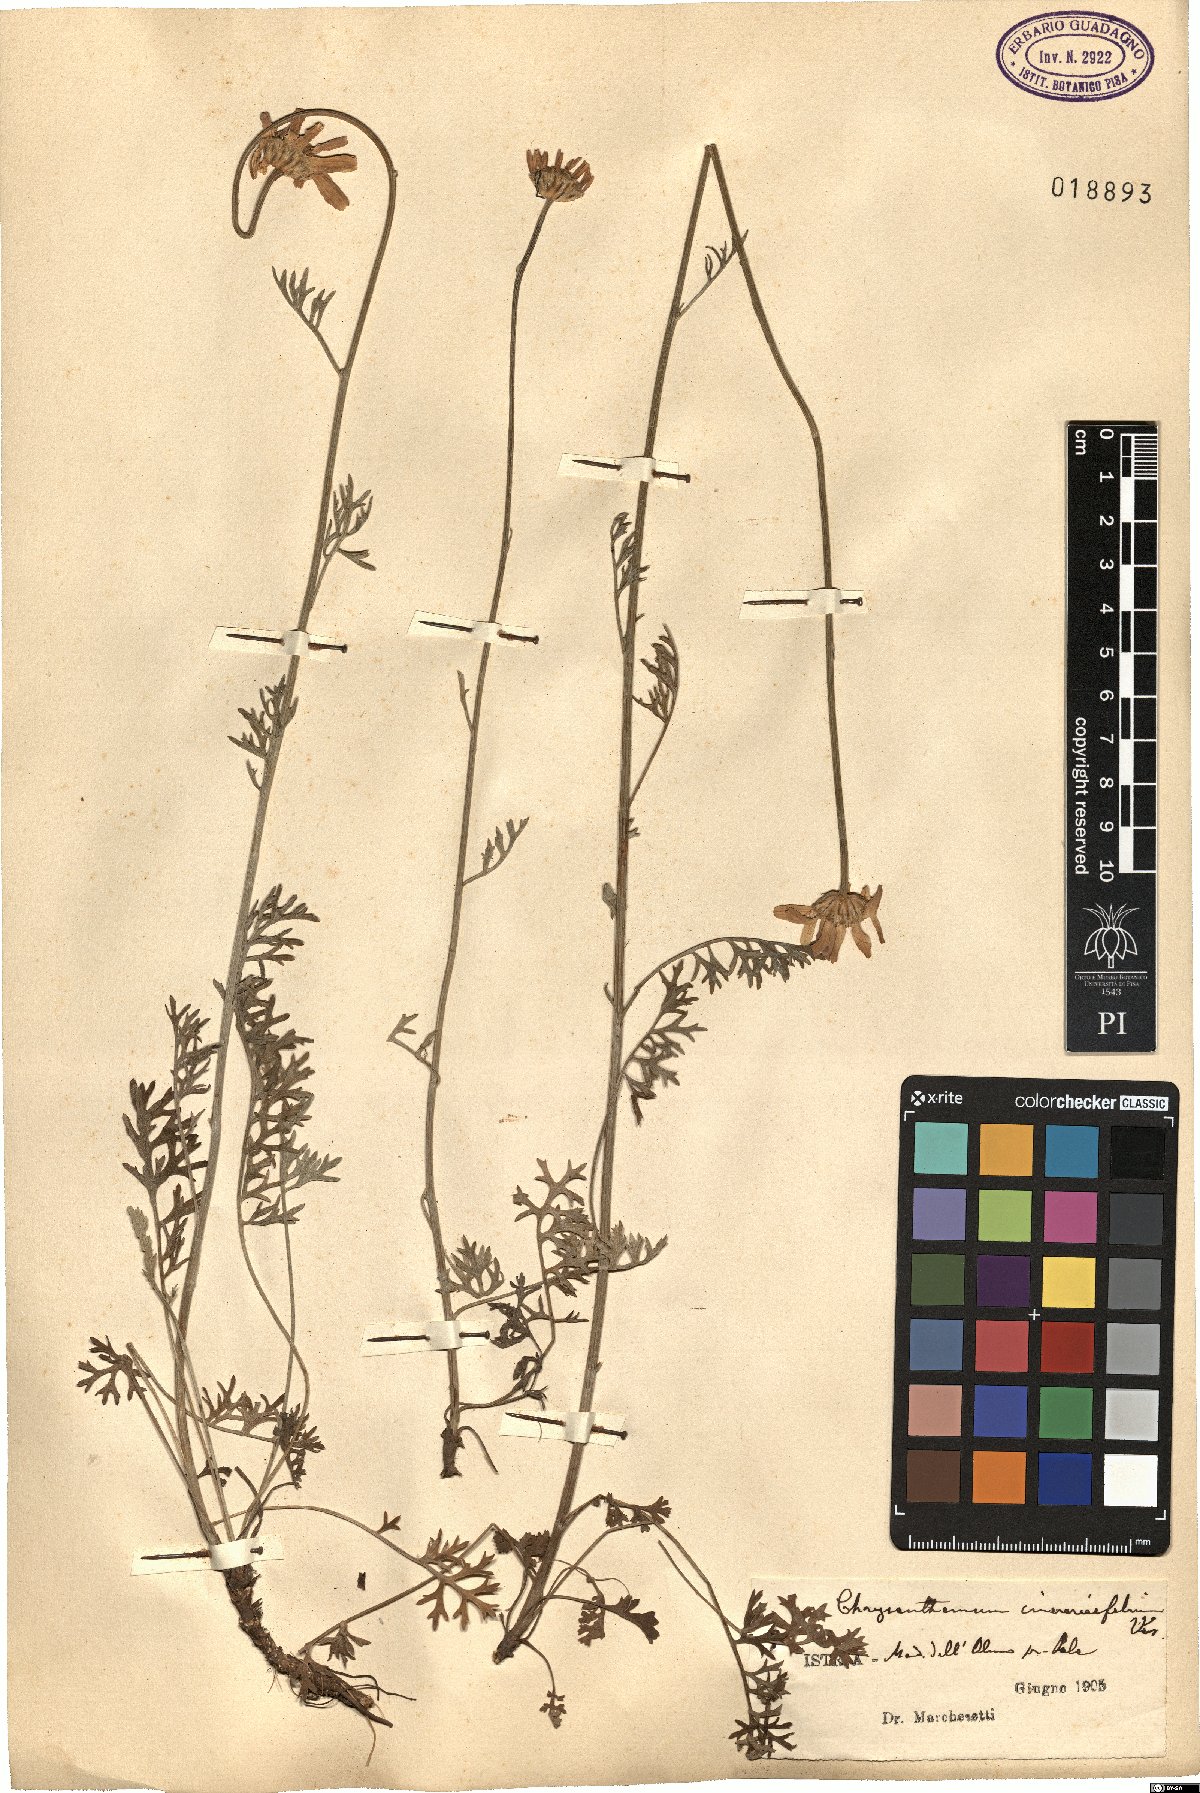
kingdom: Plantae
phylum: Tracheophyta
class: Magnoliopsida
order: Asterales
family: Asteraceae
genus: Tanacetum
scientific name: Tanacetum cinerariifolium
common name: Dalmatian pyrethrum
